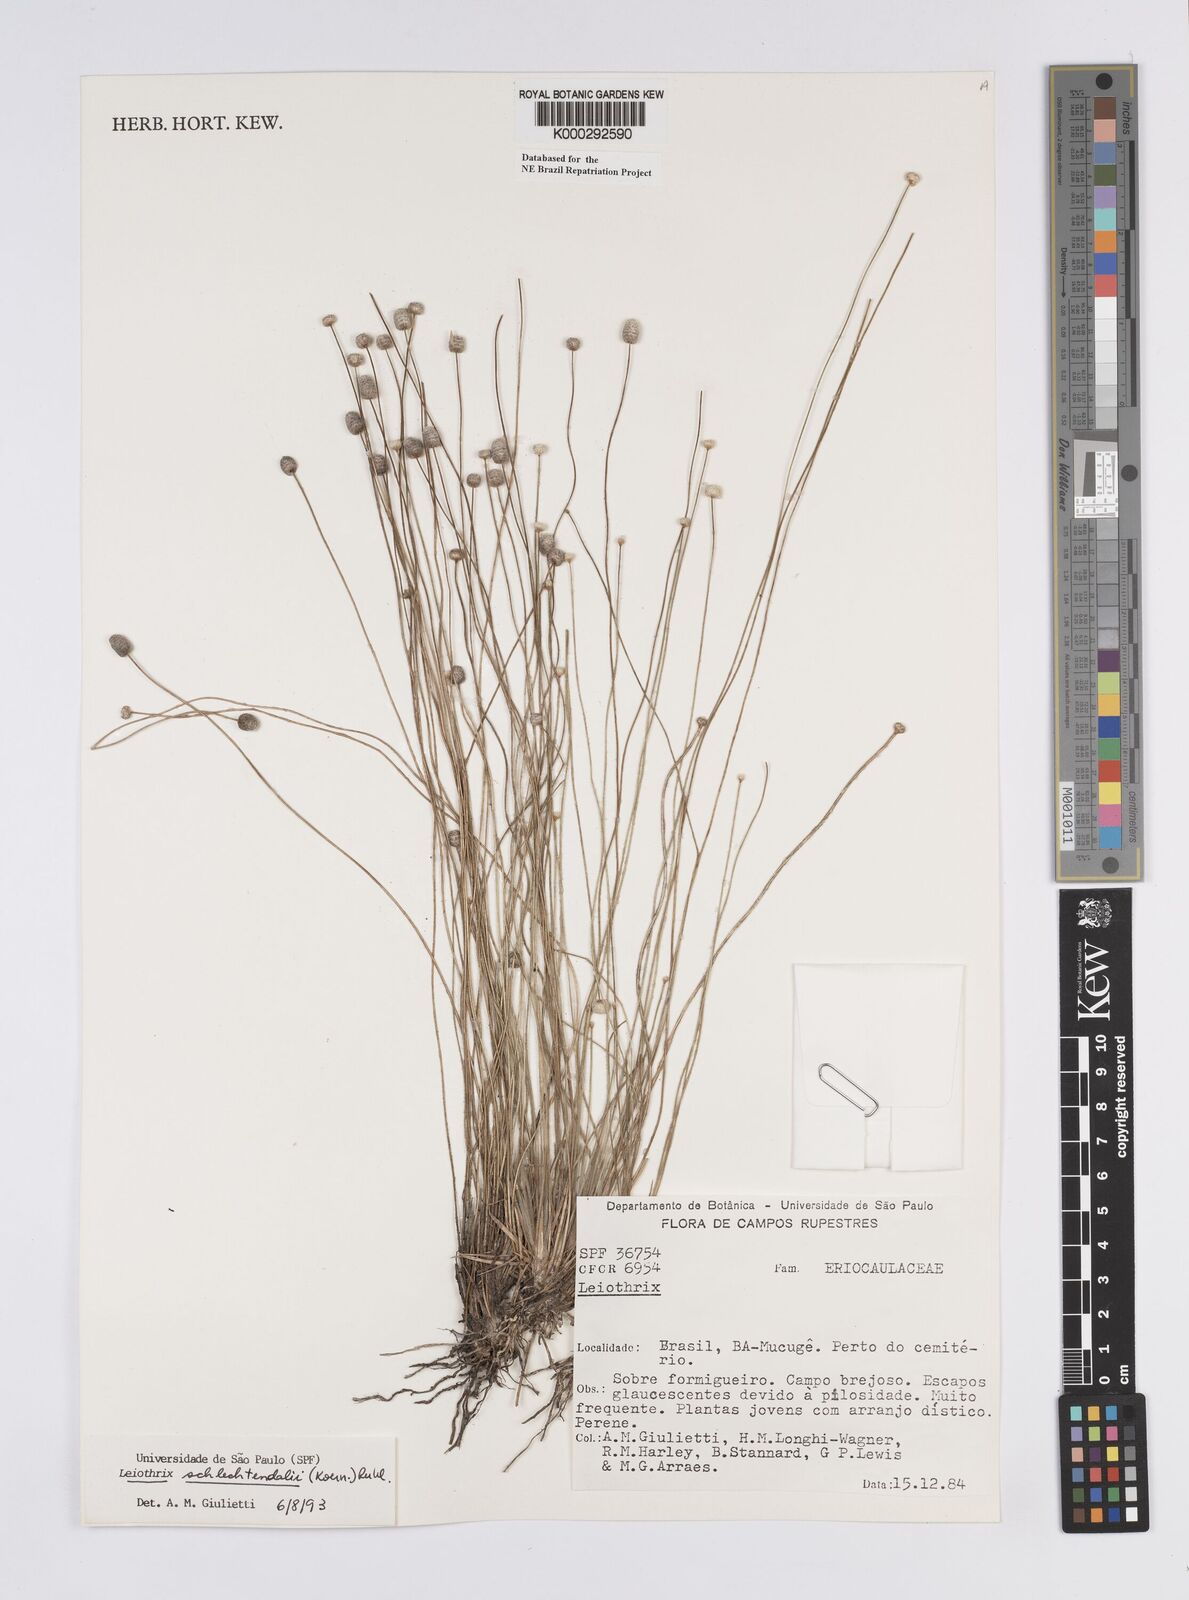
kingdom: Plantae
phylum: Tracheophyta
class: Liliopsida
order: Poales
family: Eriocaulaceae
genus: Leiothrix
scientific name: Leiothrix schlechtendalii
